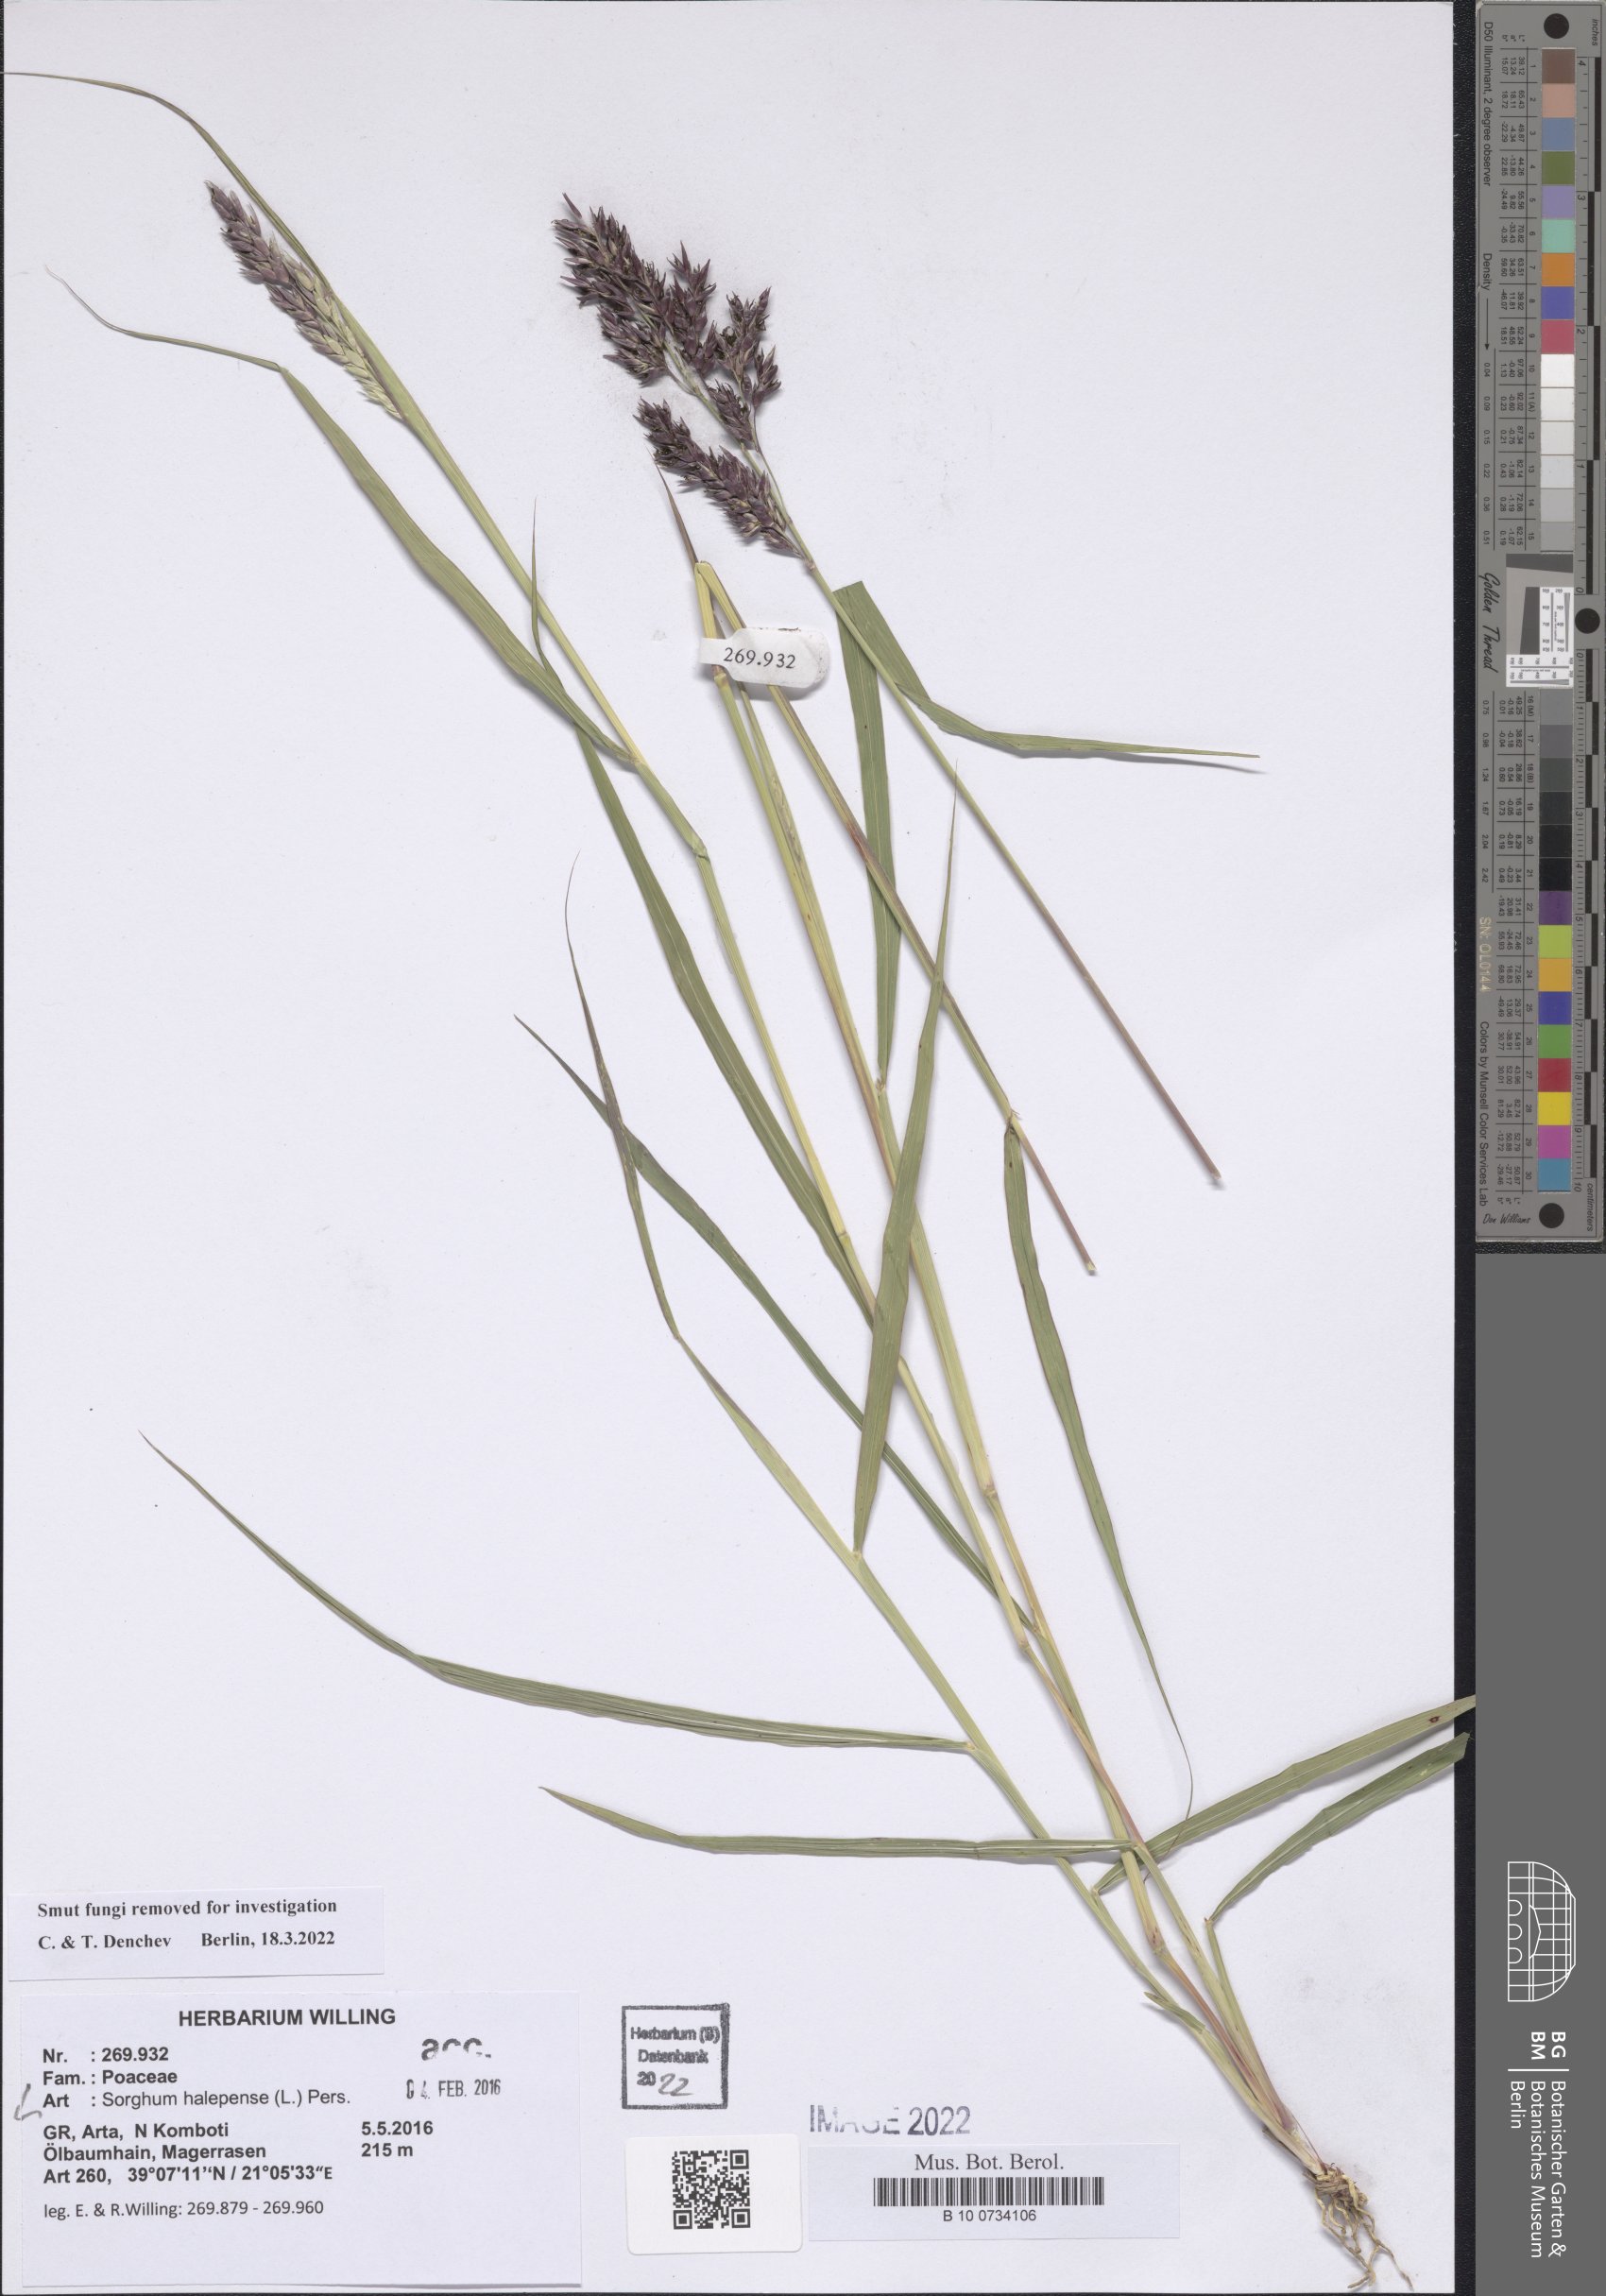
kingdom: Plantae
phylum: Tracheophyta
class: Liliopsida
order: Poales
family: Poaceae
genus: Sorghum
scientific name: Sorghum halepense
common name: Johnson-grass
